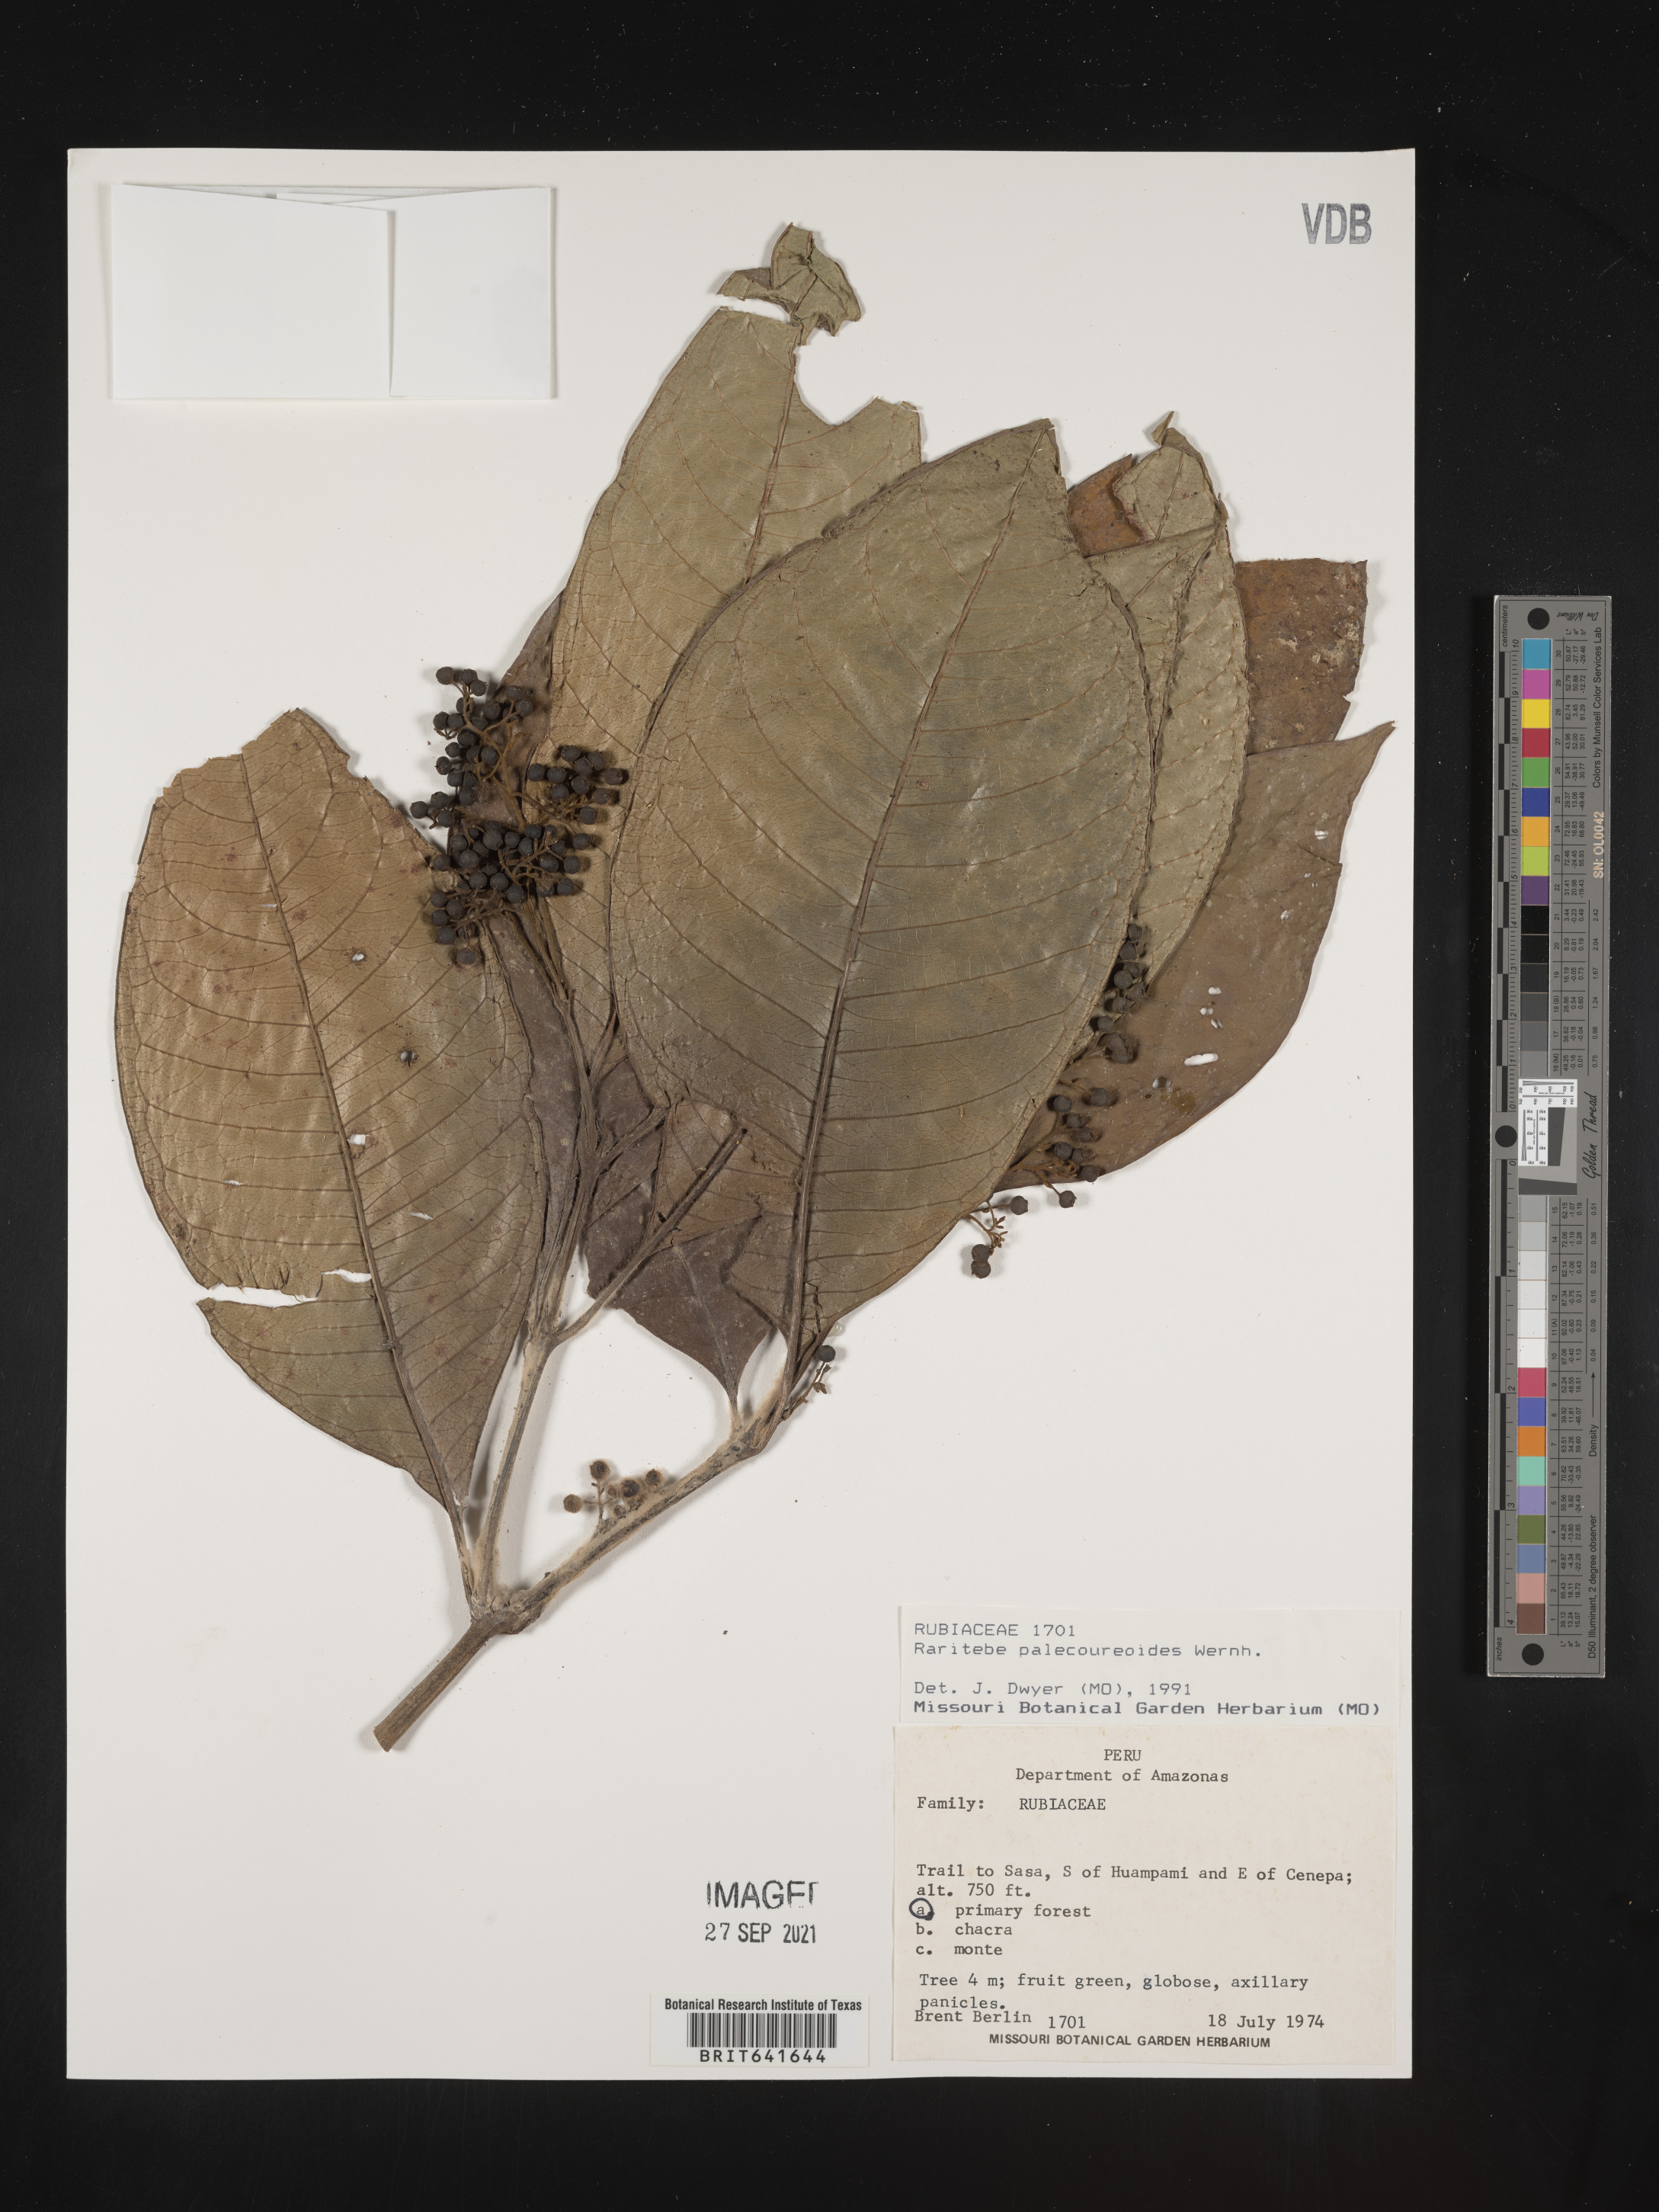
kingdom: Plantae
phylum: Tracheophyta
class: Magnoliopsida
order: Gentianales
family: Rubiaceae
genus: Raritebe
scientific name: Raritebe
